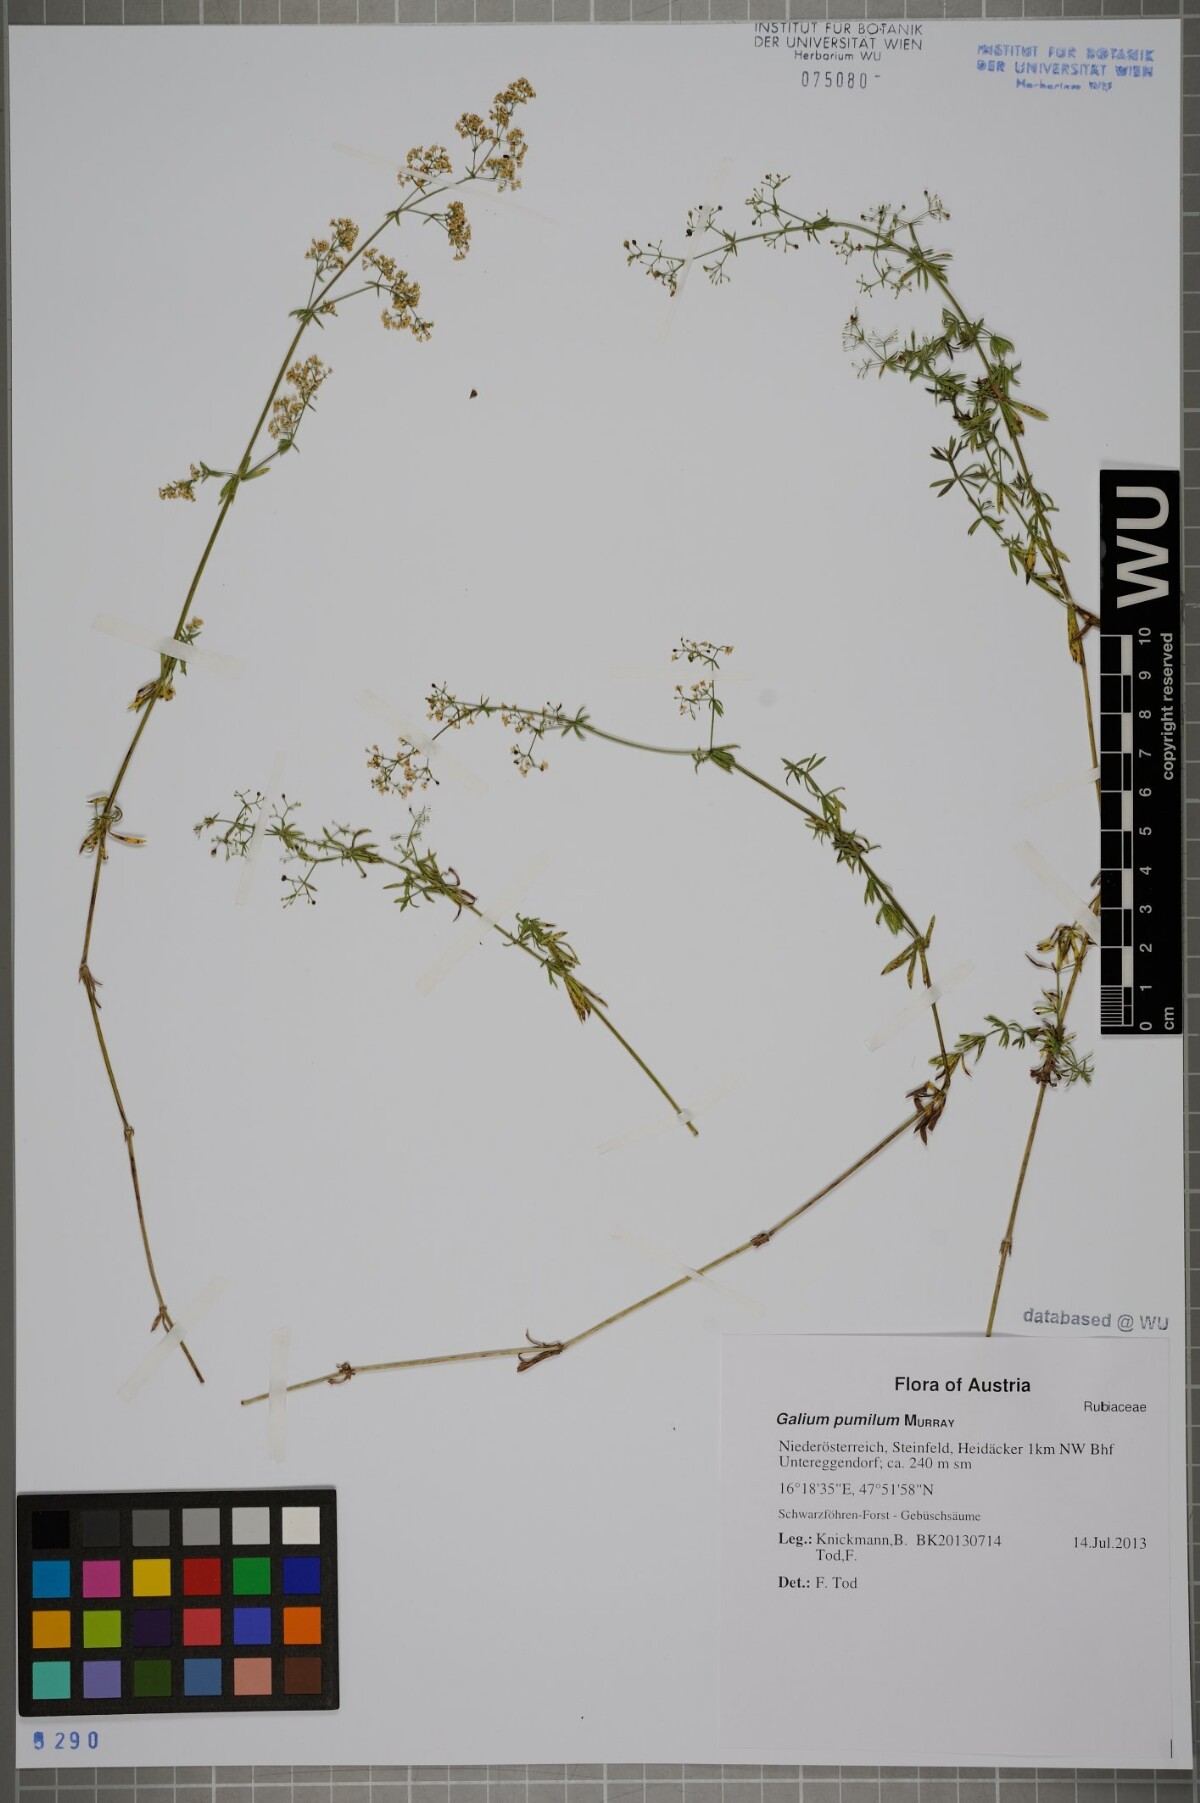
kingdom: Plantae
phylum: Tracheophyta
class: Magnoliopsida
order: Gentianales
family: Rubiaceae
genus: Galium
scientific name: Galium pumilum
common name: Slender bedstraw
